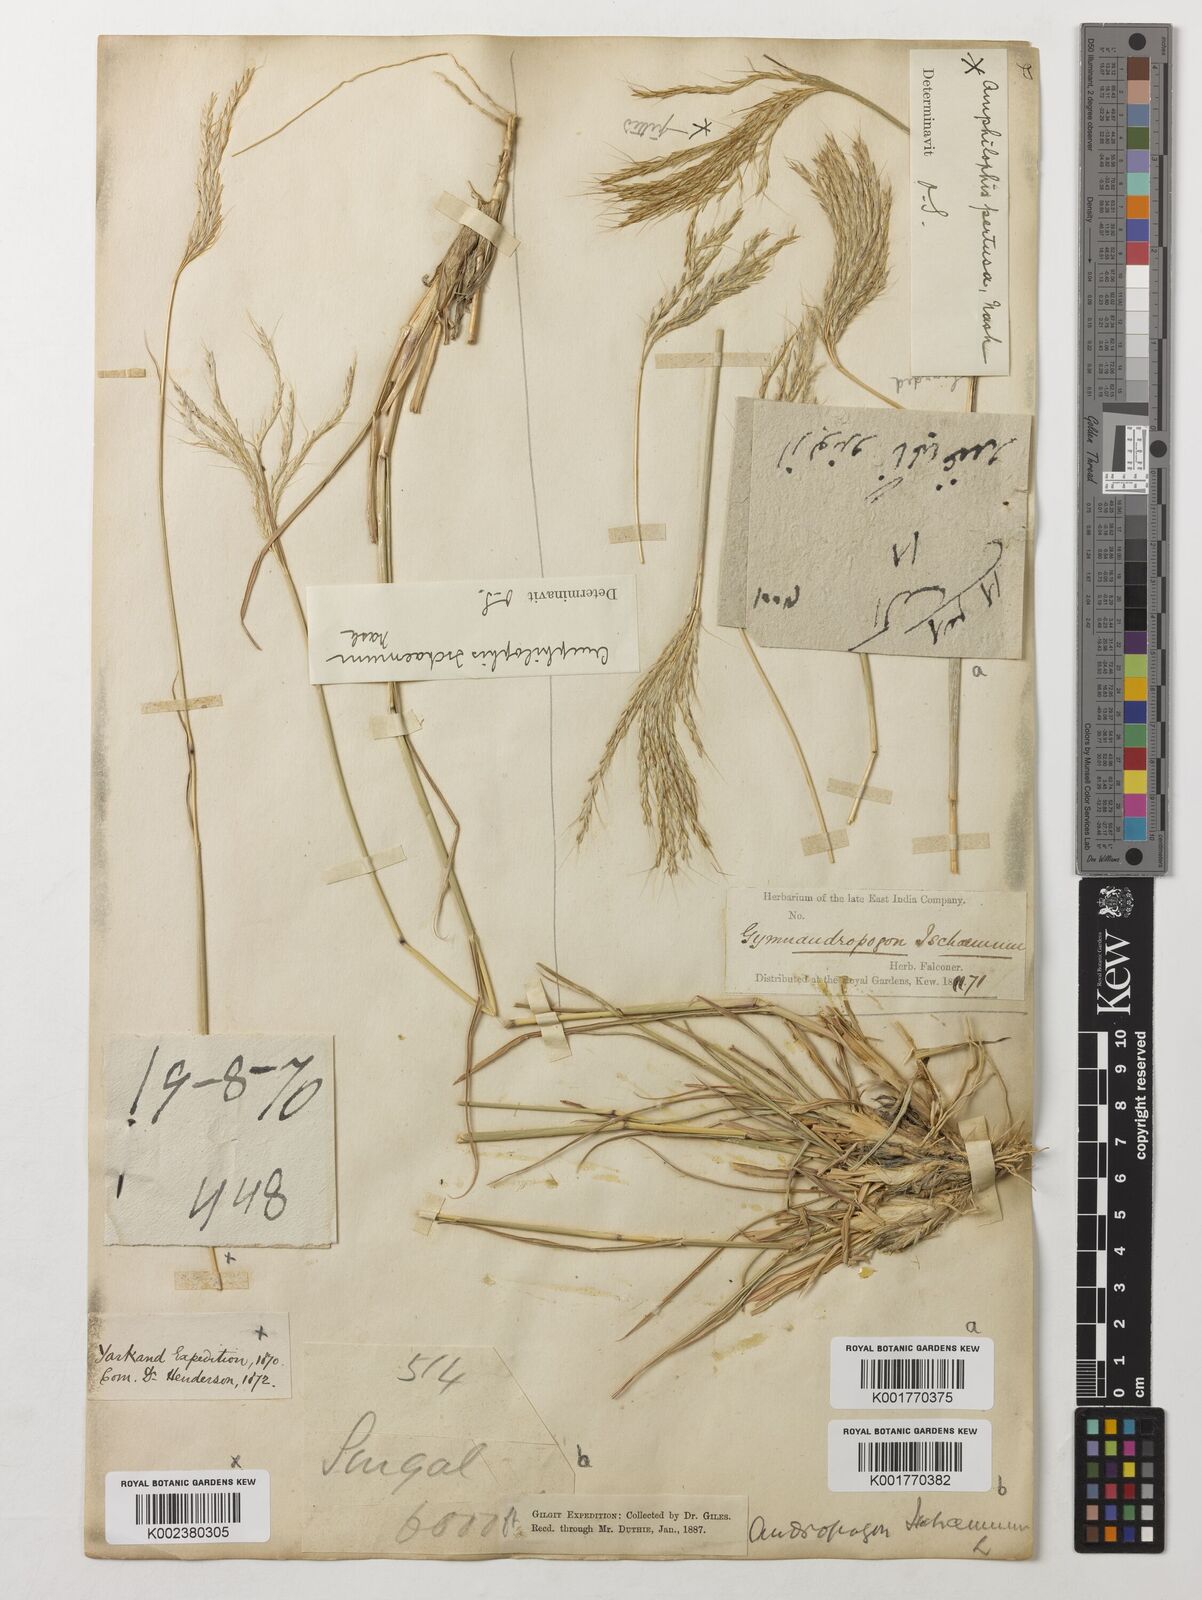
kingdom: Plantae
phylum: Tracheophyta
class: Liliopsida
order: Poales
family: Poaceae
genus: Bothriochloa
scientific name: Bothriochloa ischaemum
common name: Yellow bluestem
